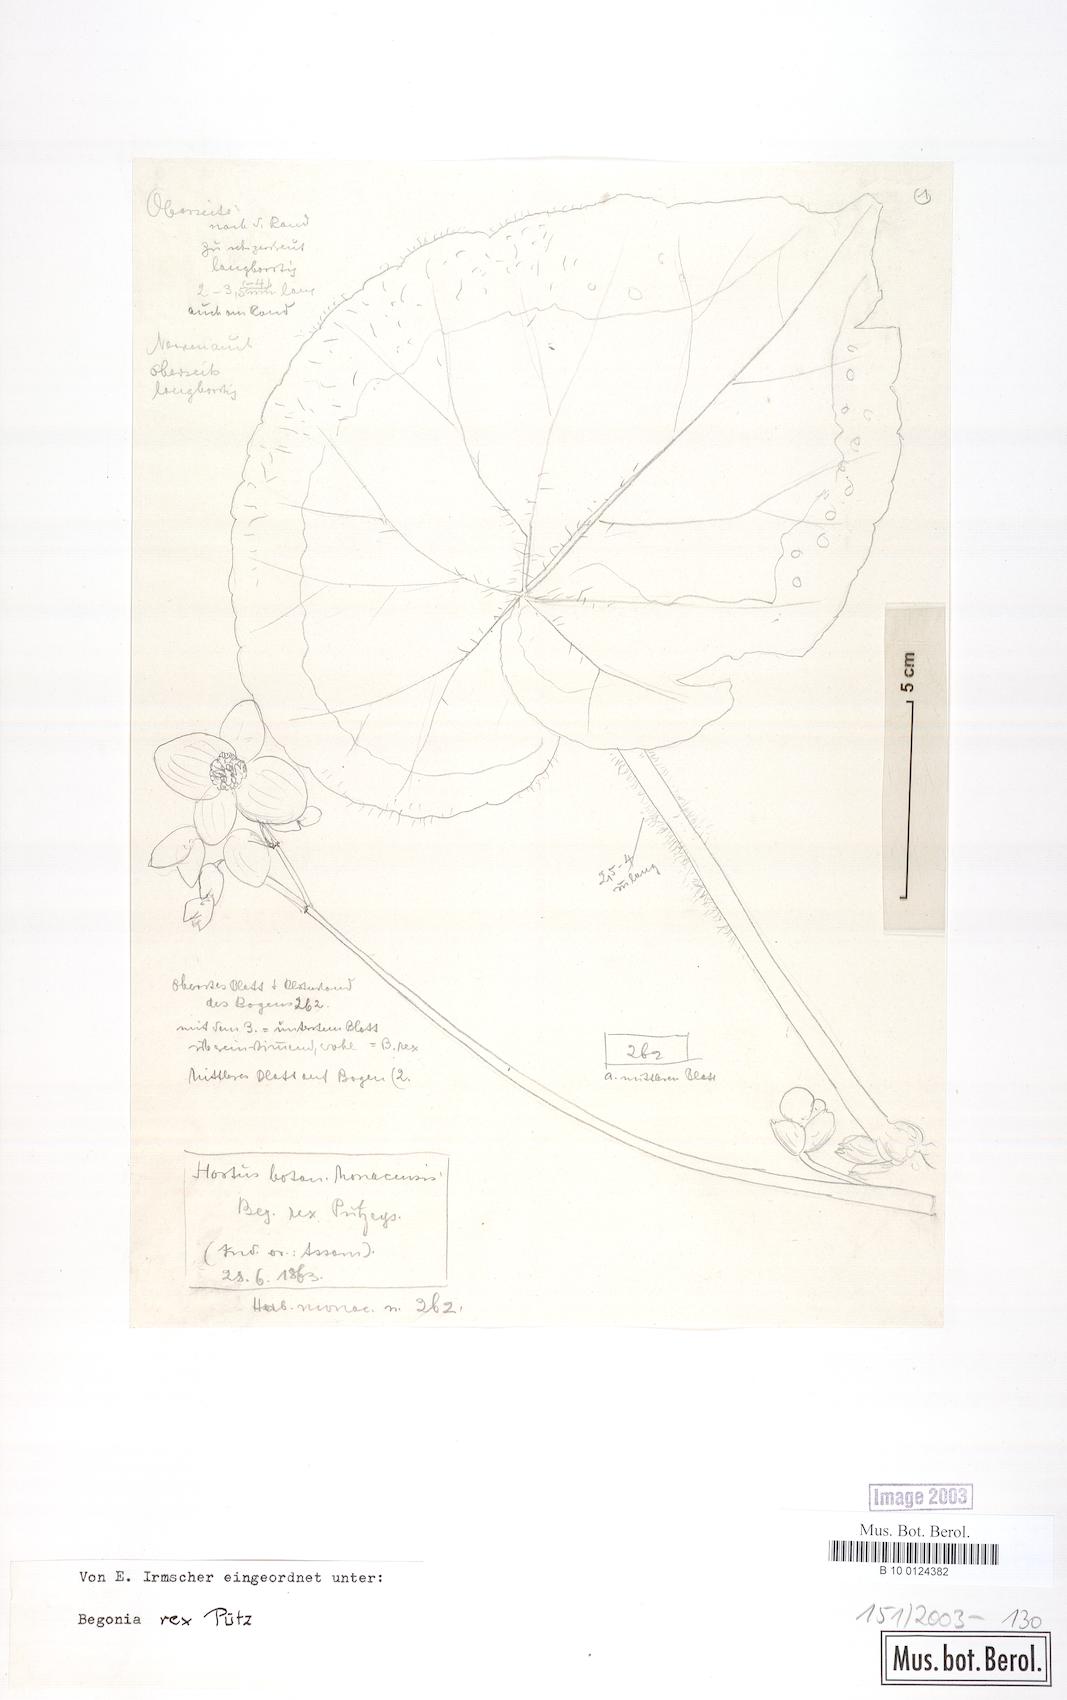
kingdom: Plantae
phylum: Tracheophyta
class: Magnoliopsida
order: Cucurbitales
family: Begoniaceae
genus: Begonia
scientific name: Begonia rex
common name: Painted-leaf begonia
